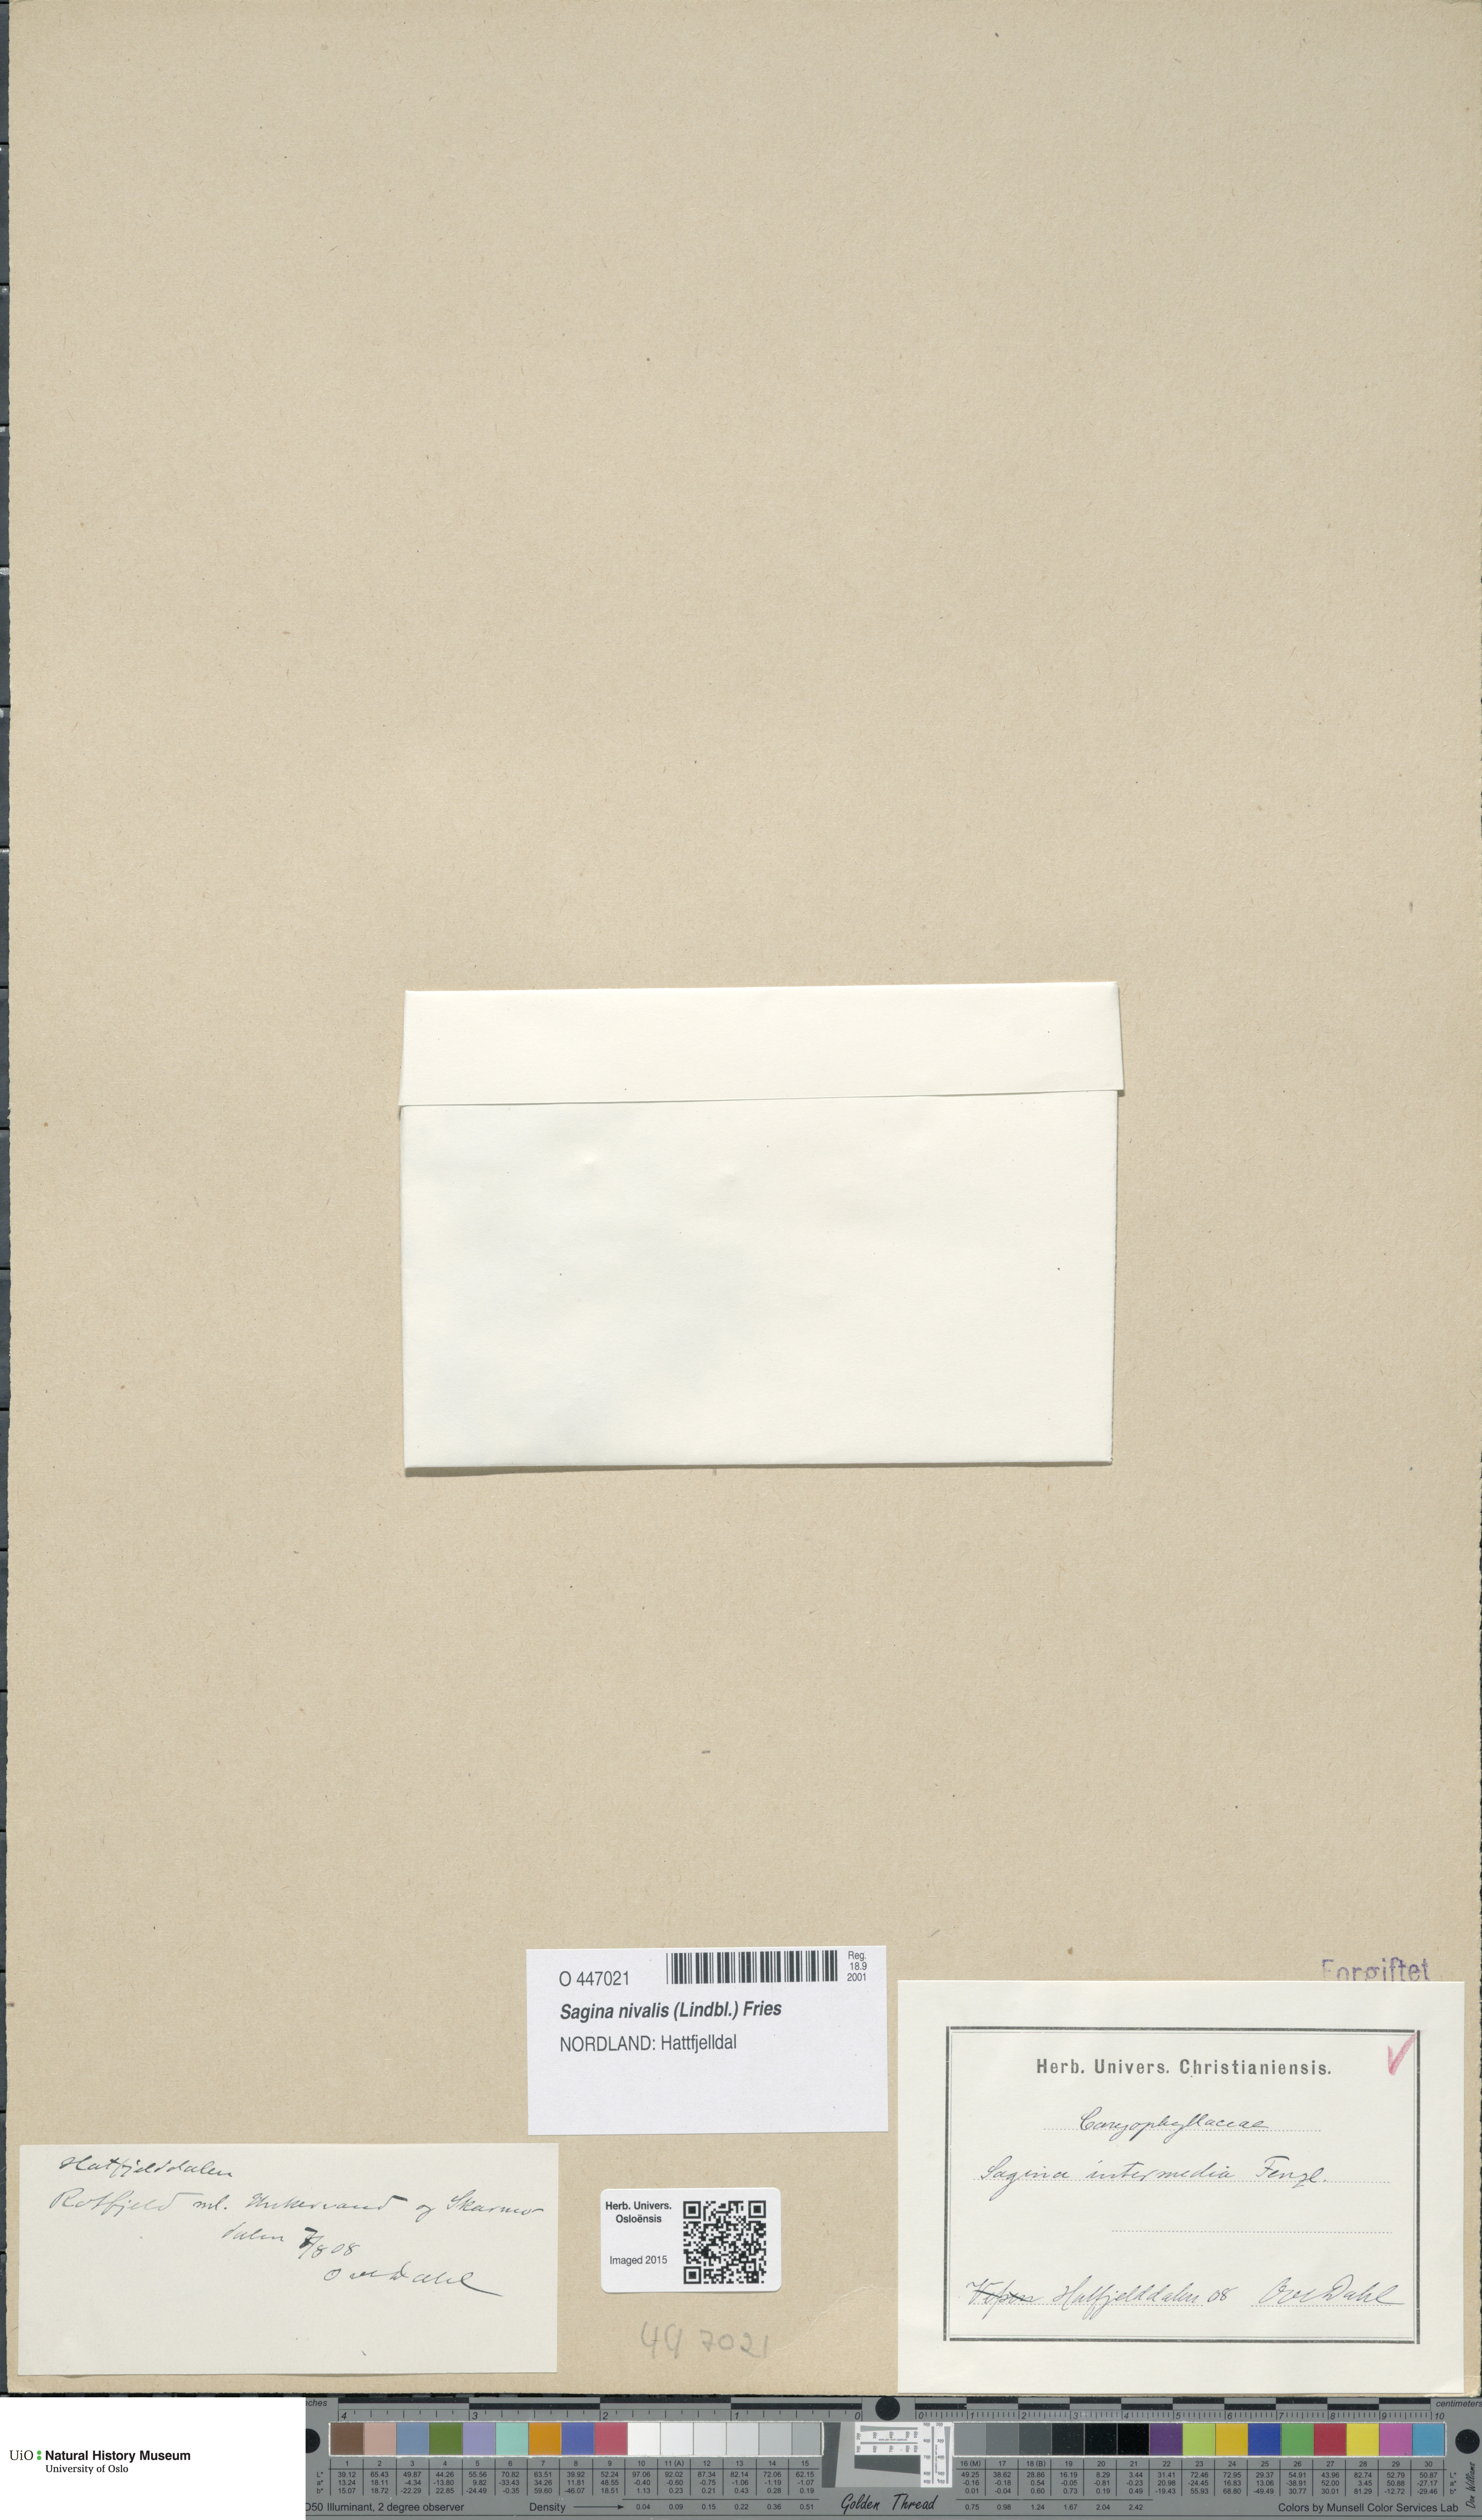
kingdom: Plantae
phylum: Tracheophyta
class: Magnoliopsida
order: Caryophyllales
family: Caryophyllaceae
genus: Sagina
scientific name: Sagina nivalis
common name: Snow pearlwort
